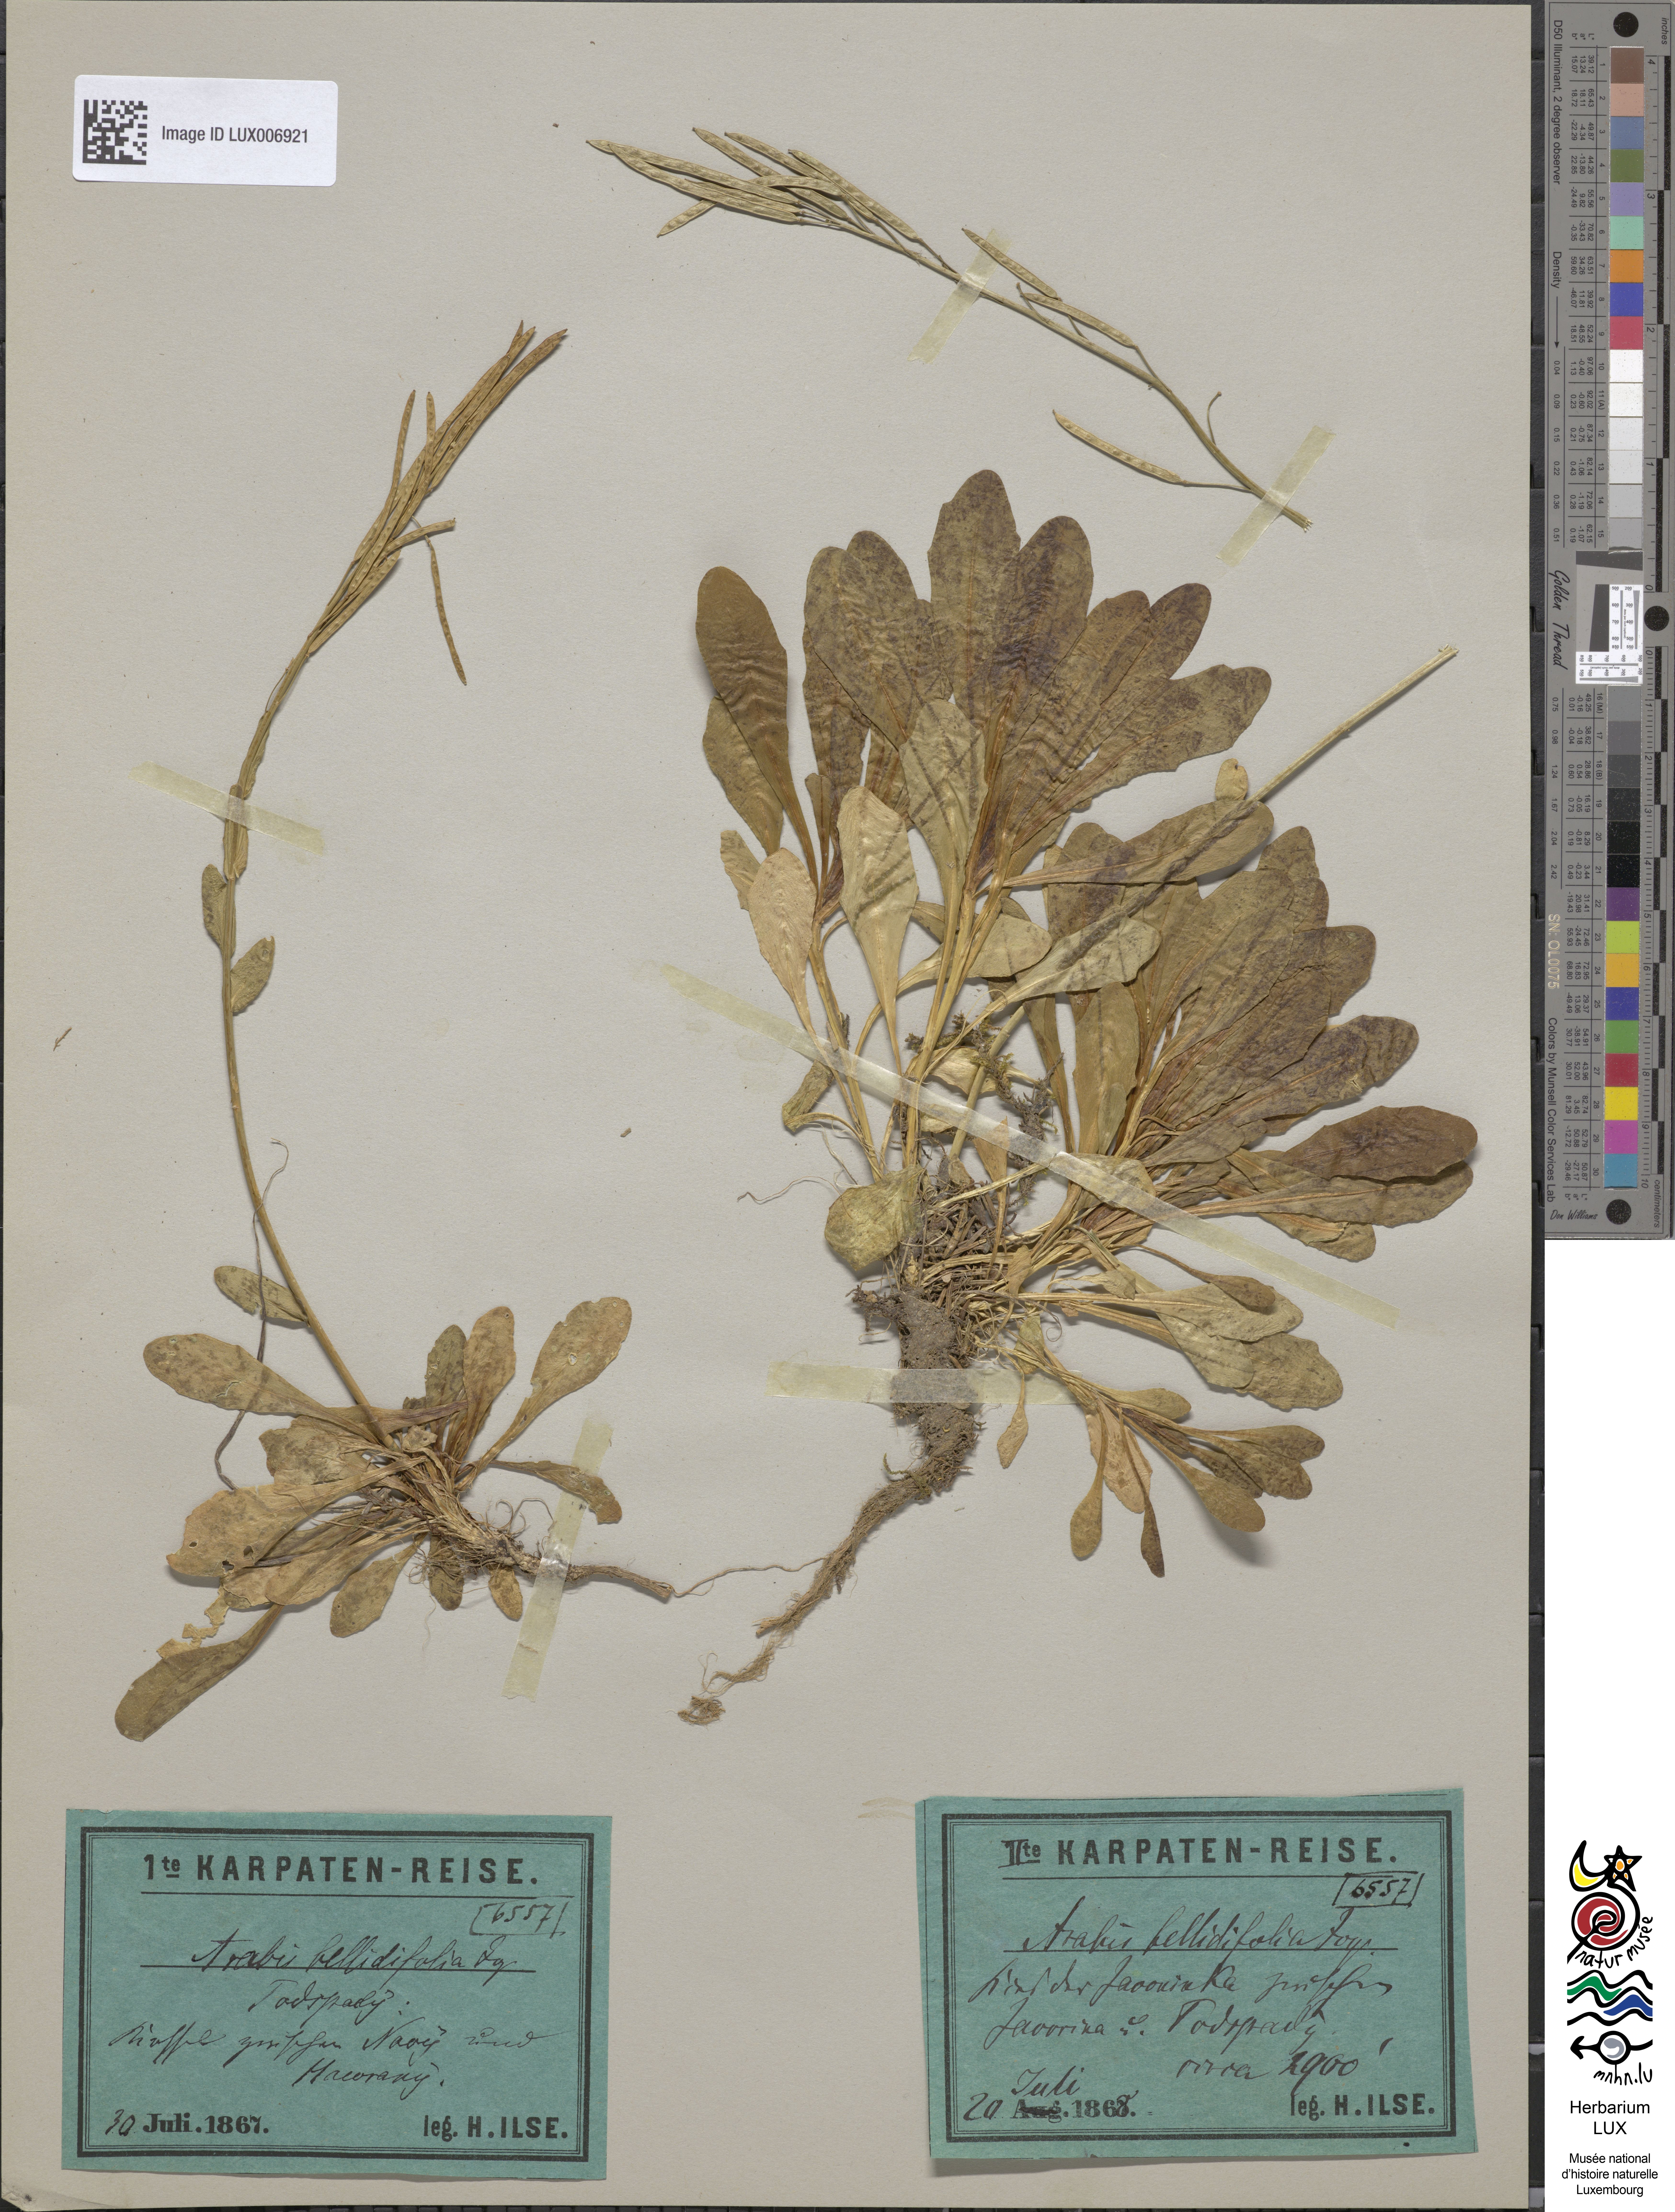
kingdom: Plantae
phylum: Tracheophyta
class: Magnoliopsida
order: Brassicales
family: Brassicaceae
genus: Arabis
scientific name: Arabis soyeri
